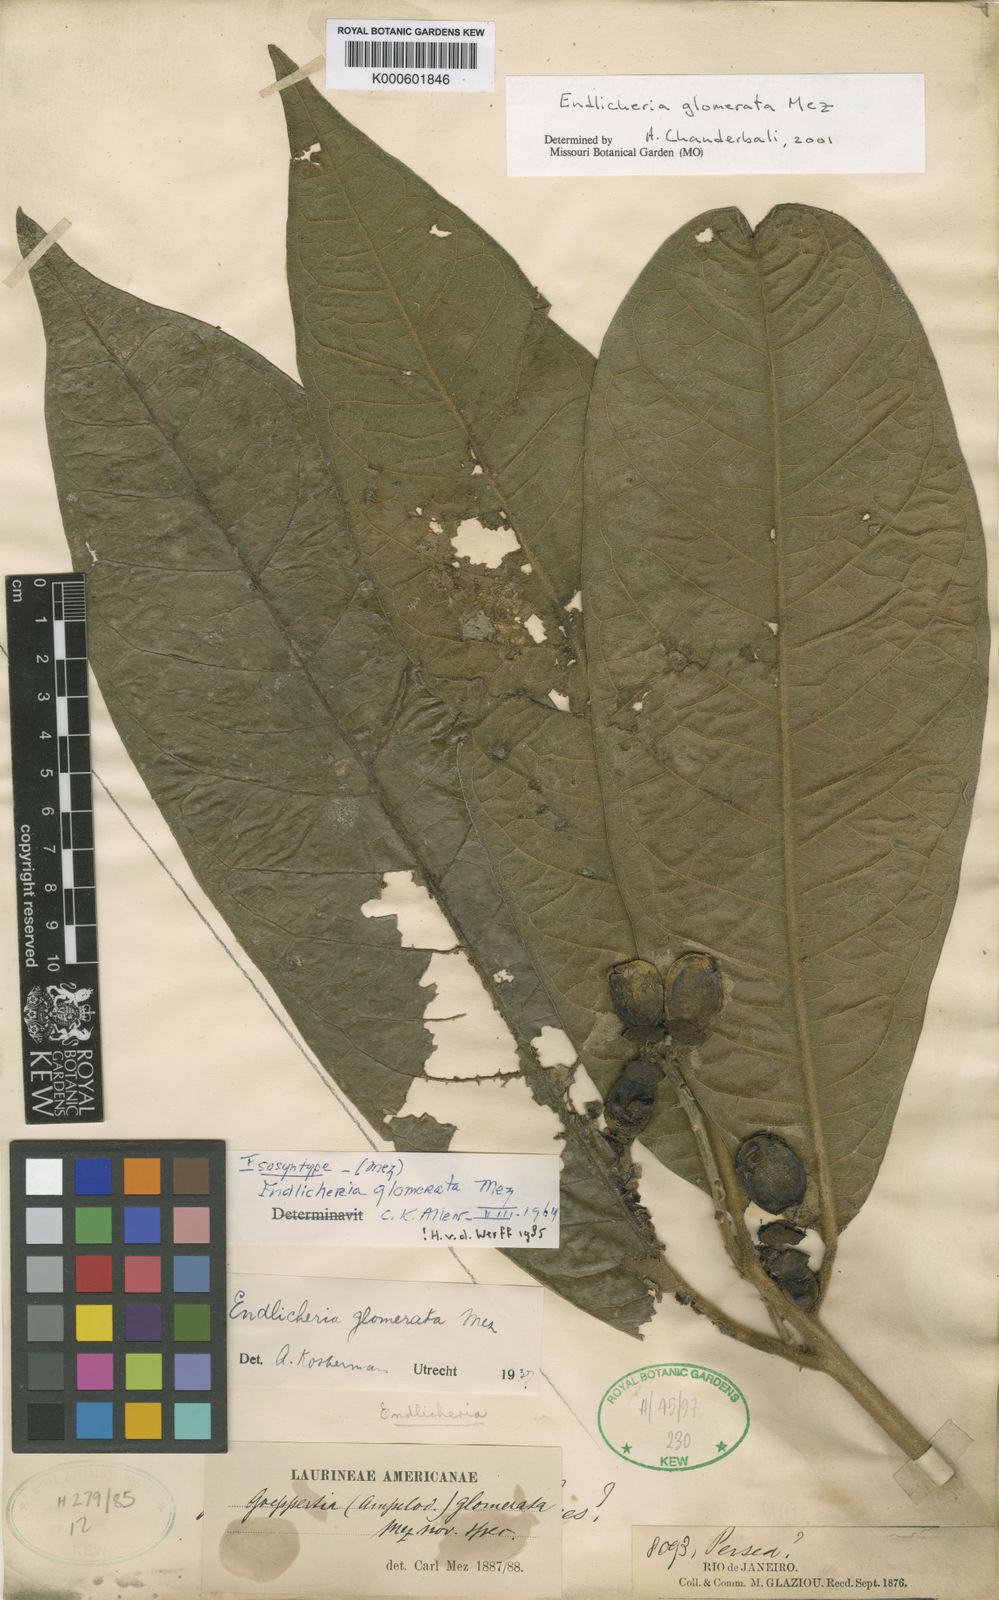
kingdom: Plantae
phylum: Tracheophyta
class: Magnoliopsida
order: Laurales
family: Lauraceae
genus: Endlicheria
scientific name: Endlicheria glomerata
